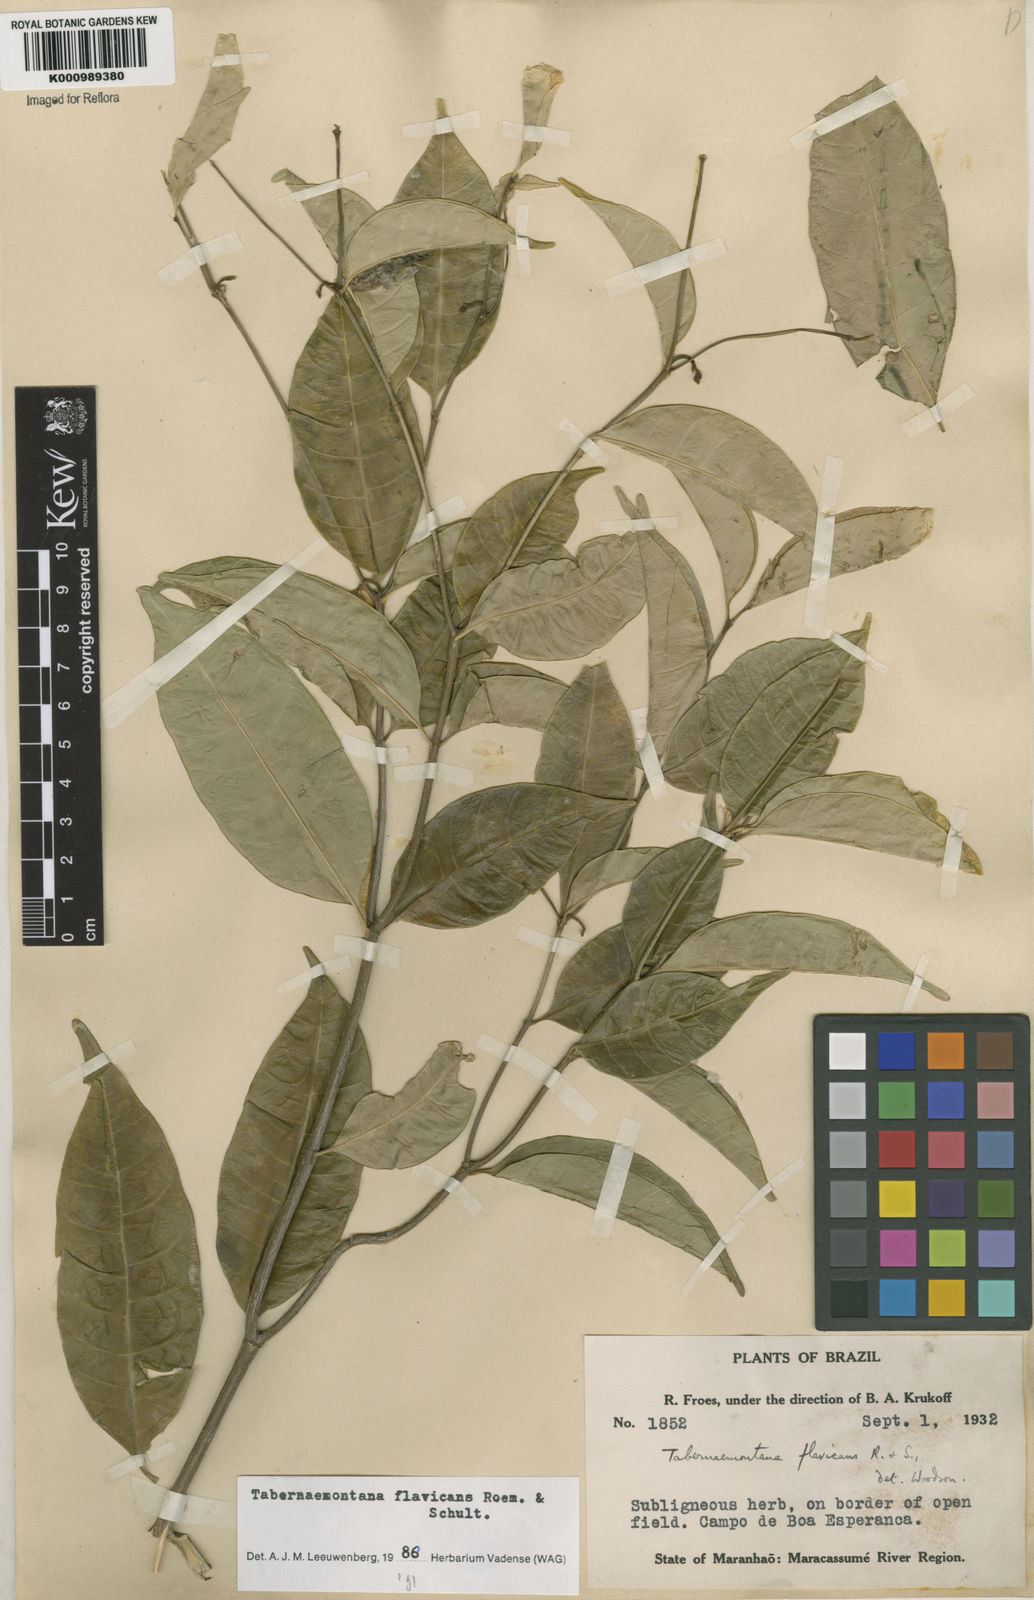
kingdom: Plantae
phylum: Tracheophyta
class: Magnoliopsida
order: Gentianales
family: Apocynaceae
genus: Tabernaemontana
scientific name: Tabernaemontana flavicans
